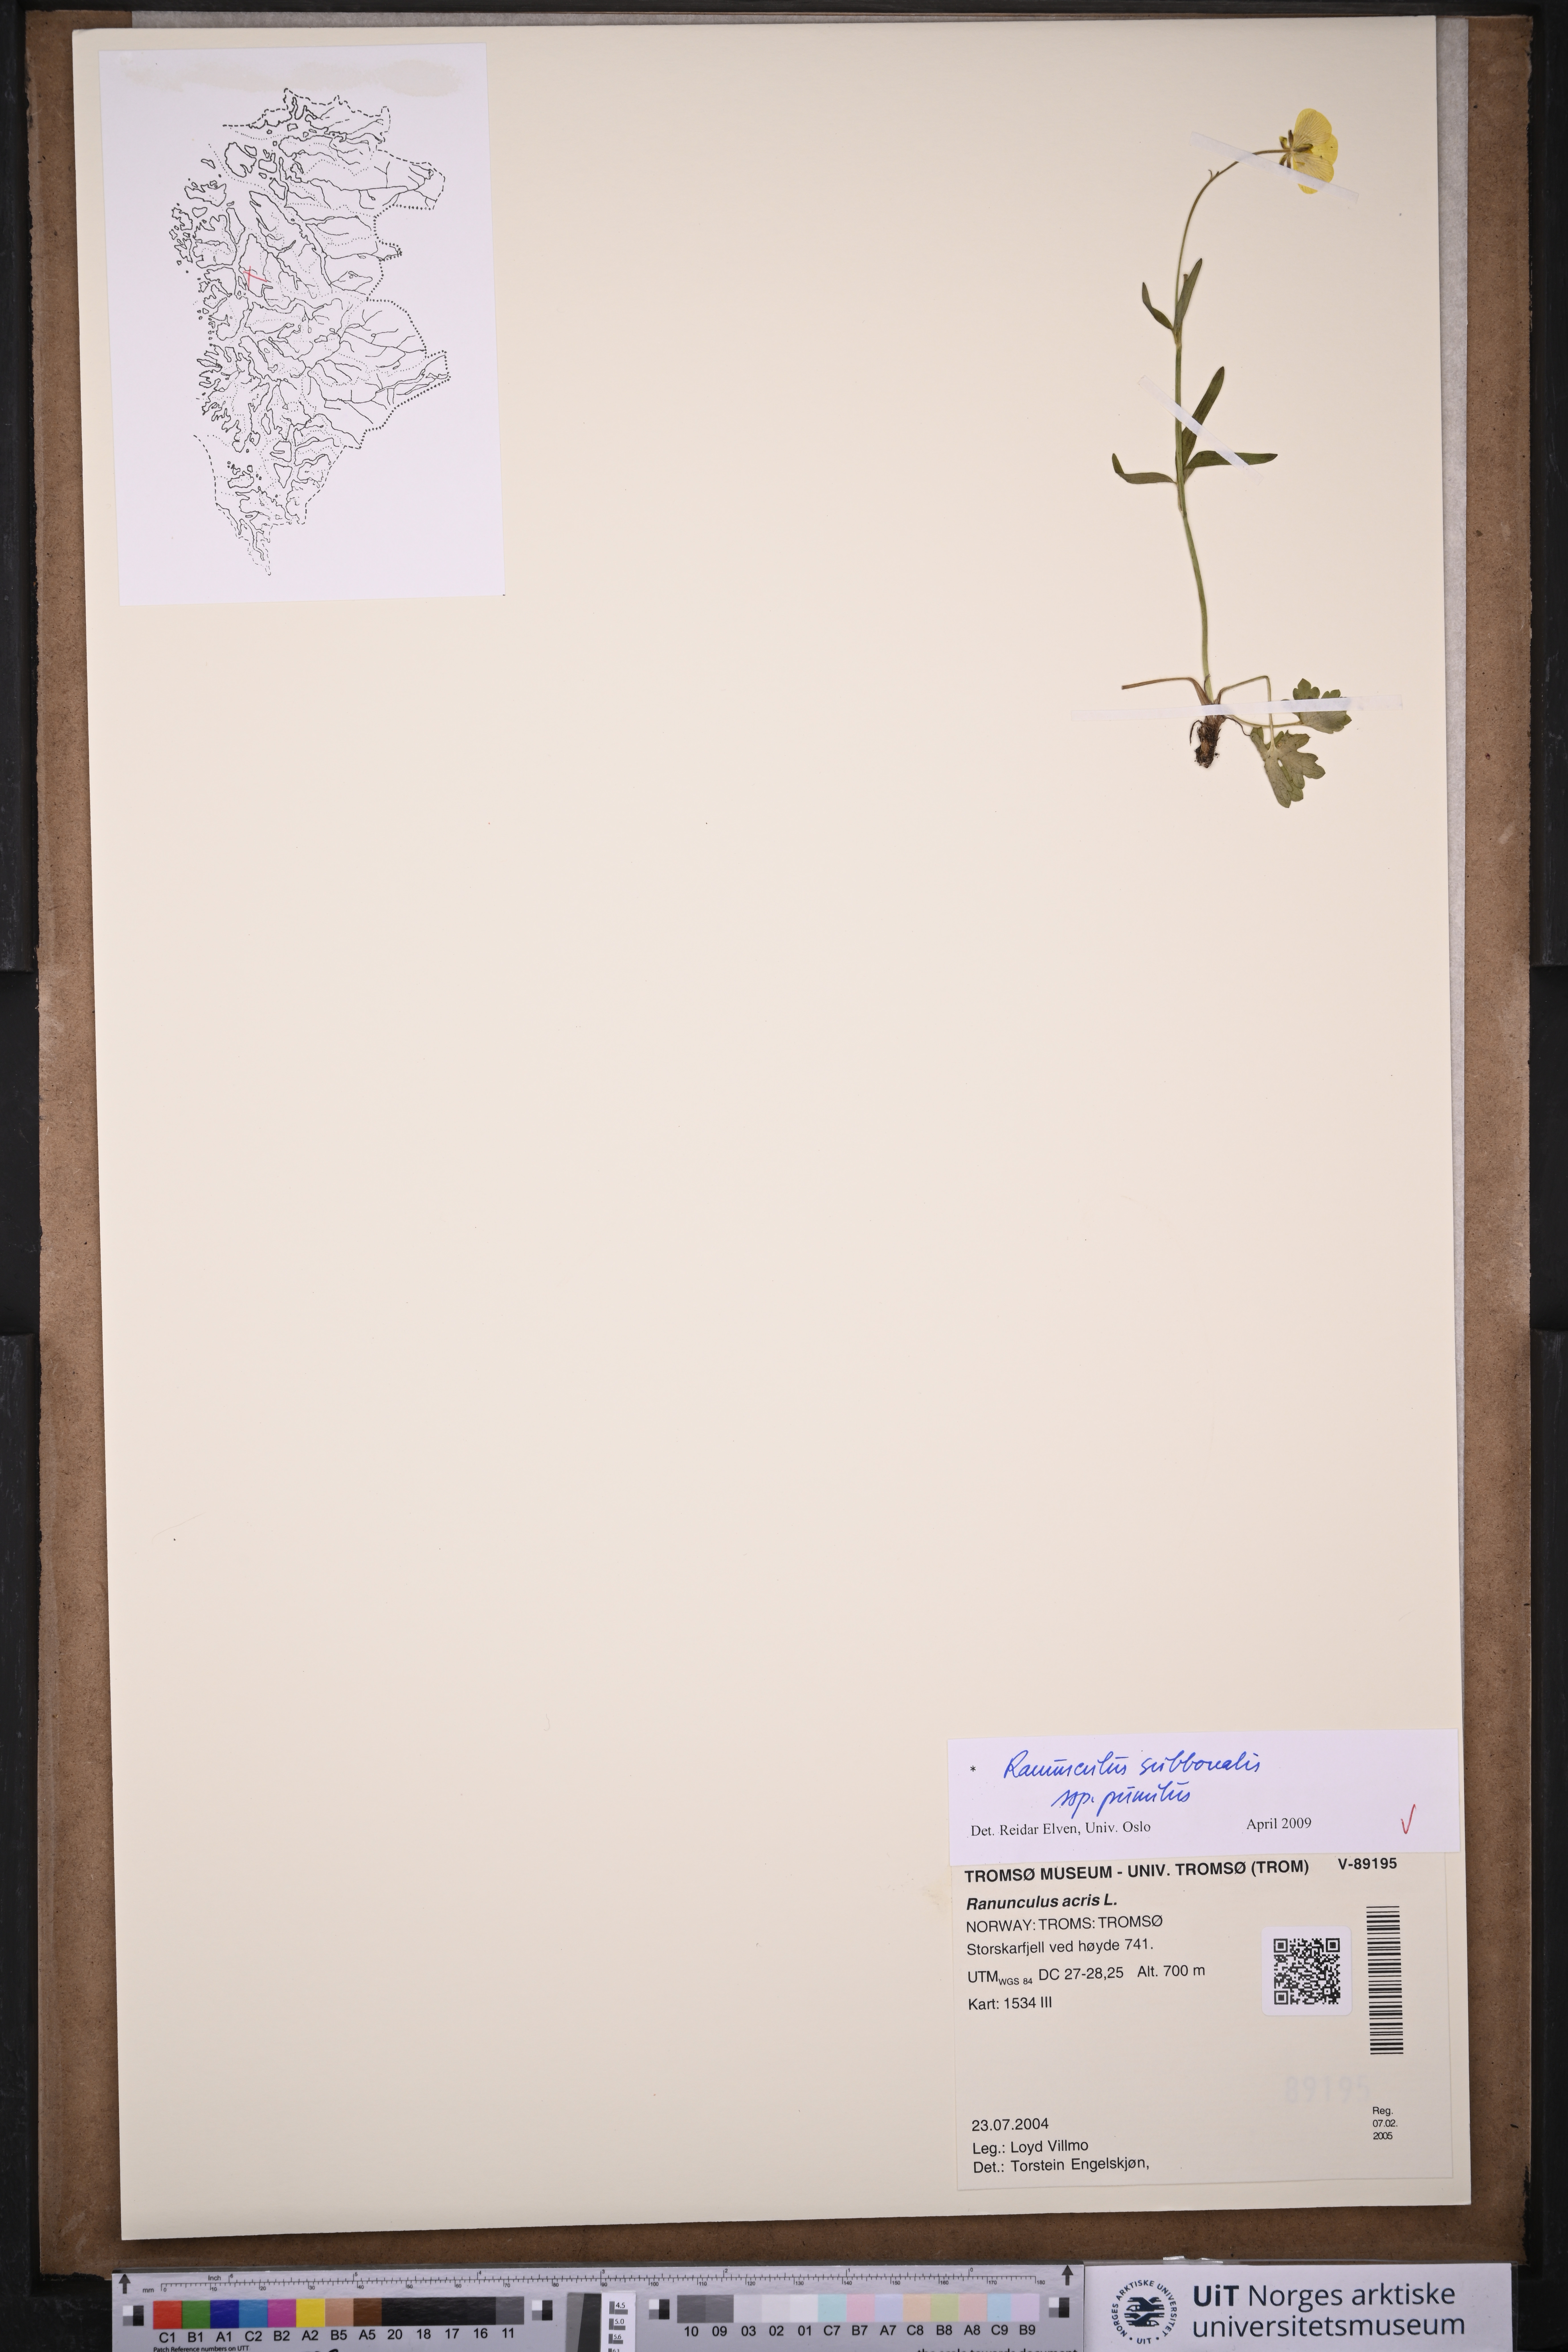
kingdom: Plantae
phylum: Tracheophyta
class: Magnoliopsida
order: Ranunculales
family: Ranunculaceae
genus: Ranunculus
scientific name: Ranunculus
